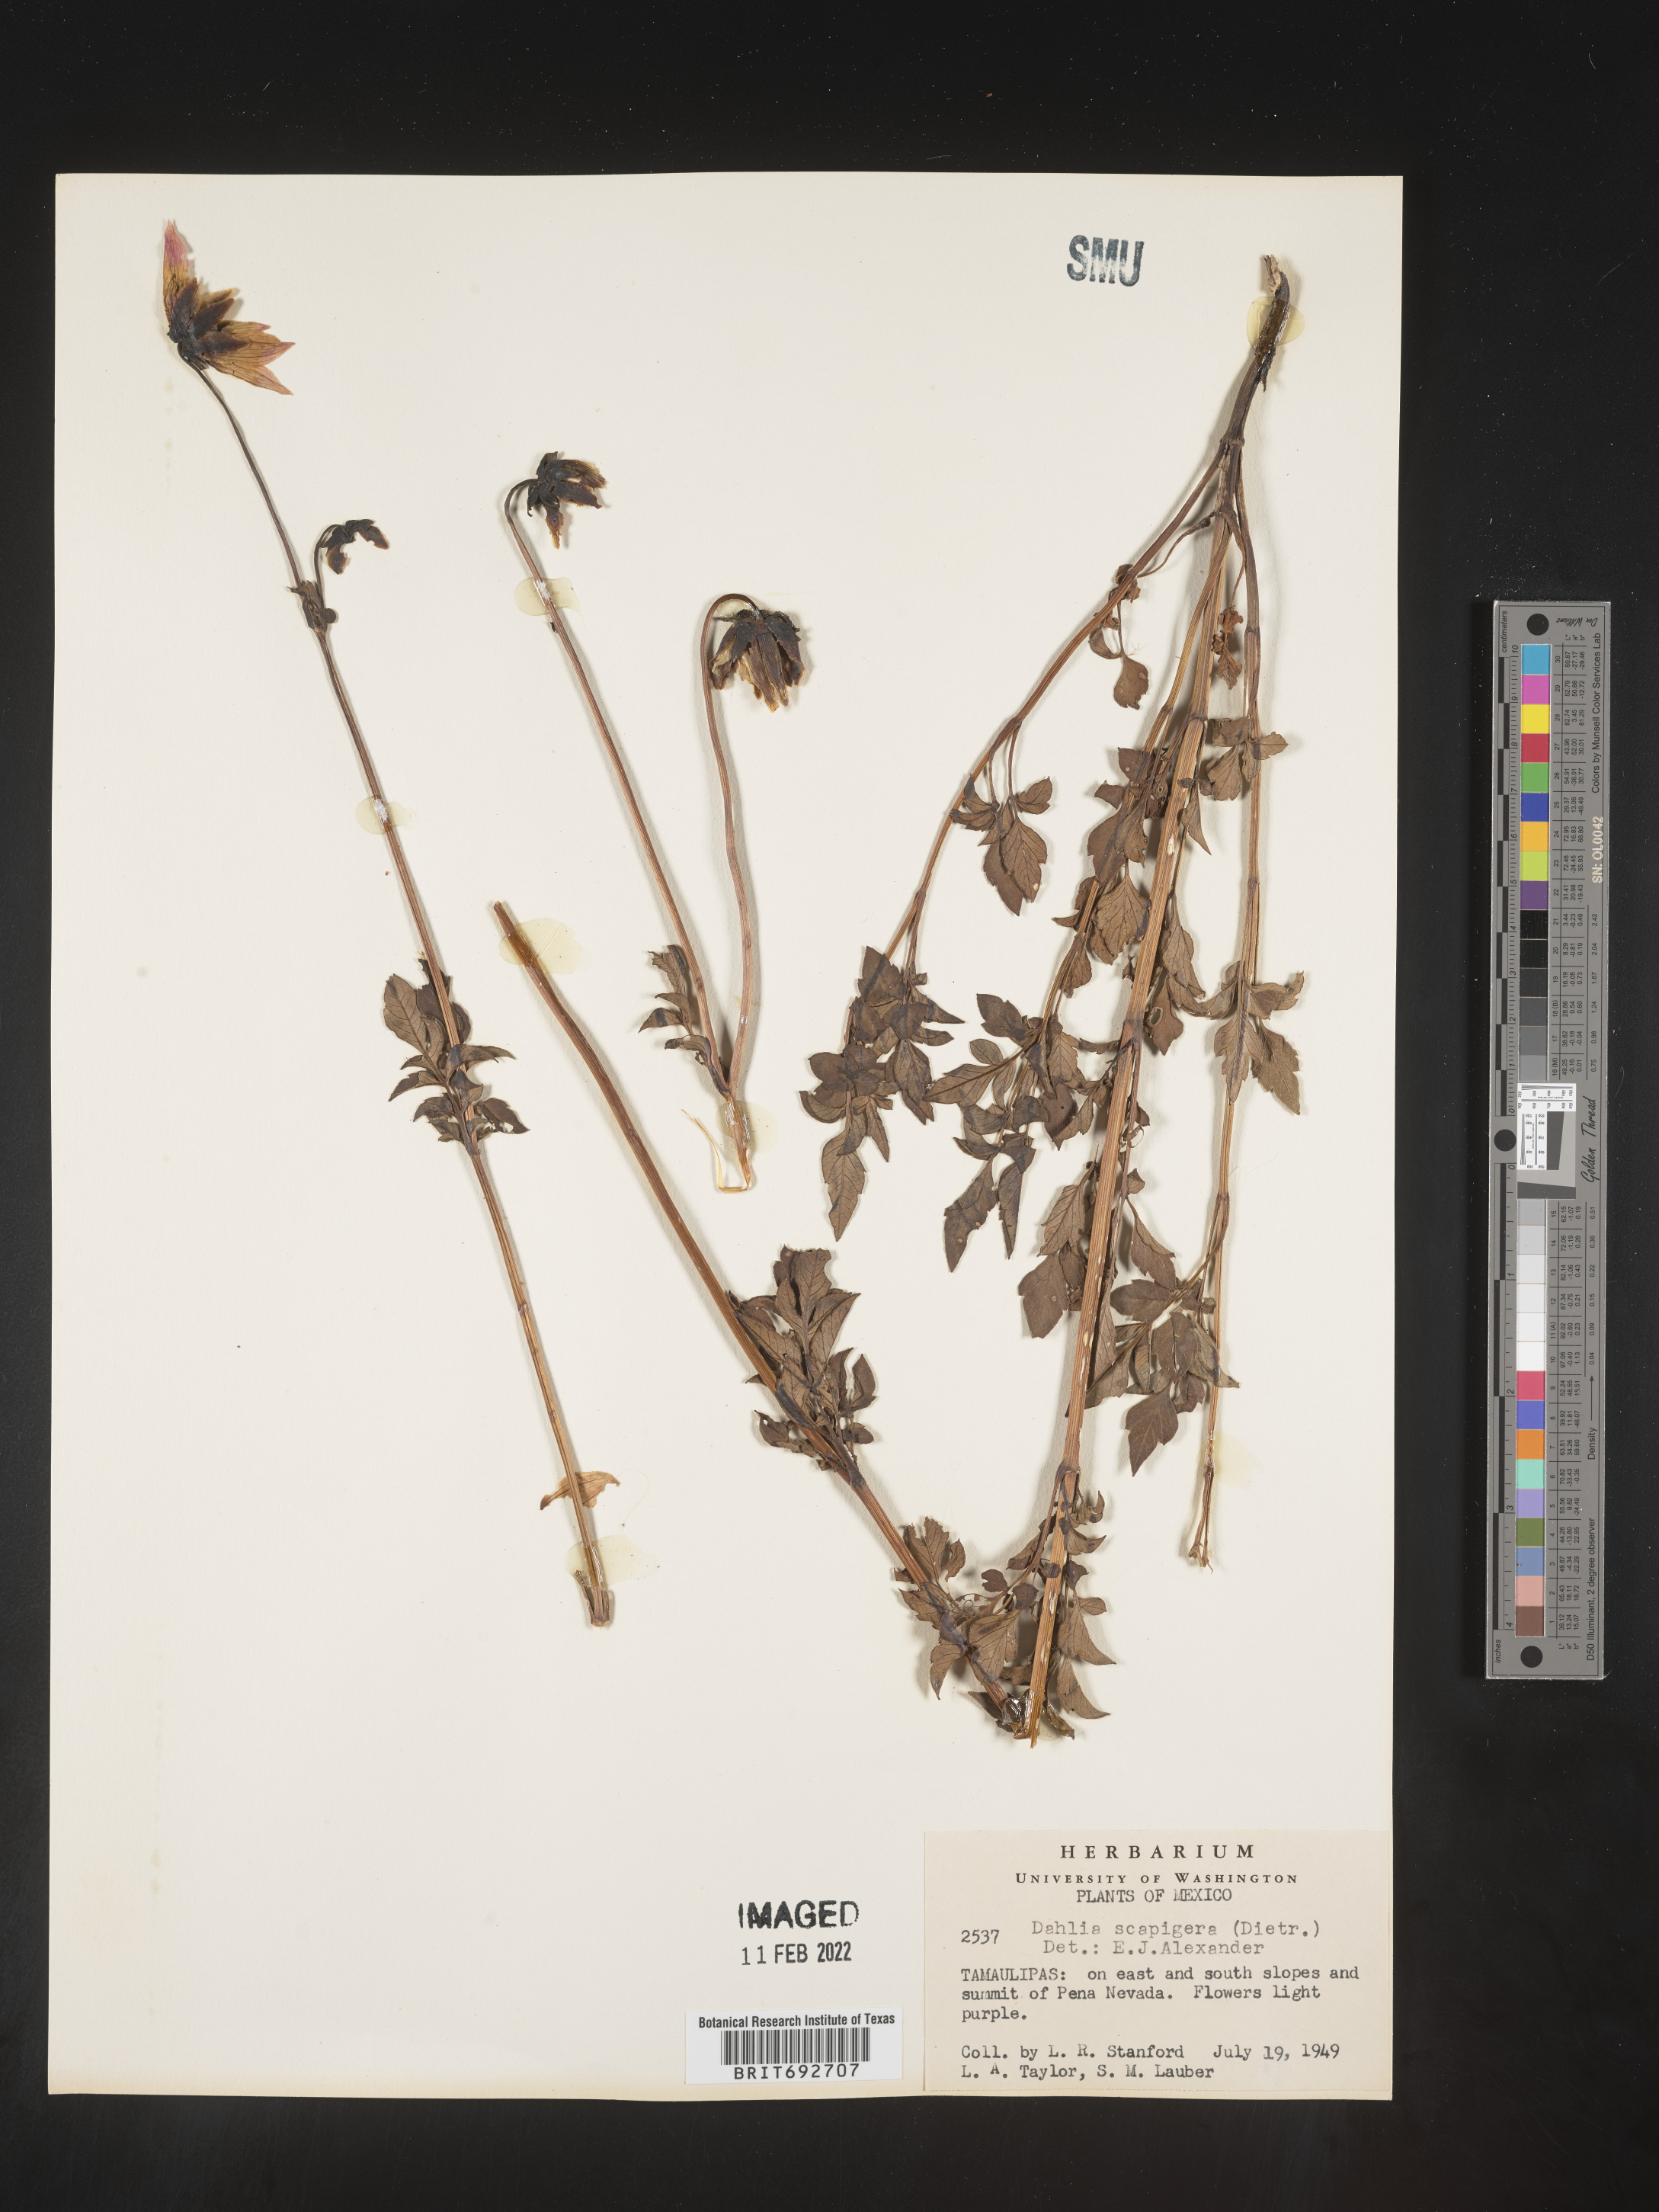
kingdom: Plantae
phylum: Tracheophyta
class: Magnoliopsida
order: Asterales
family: Asteraceae
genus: Dahlia
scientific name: Dahlia
